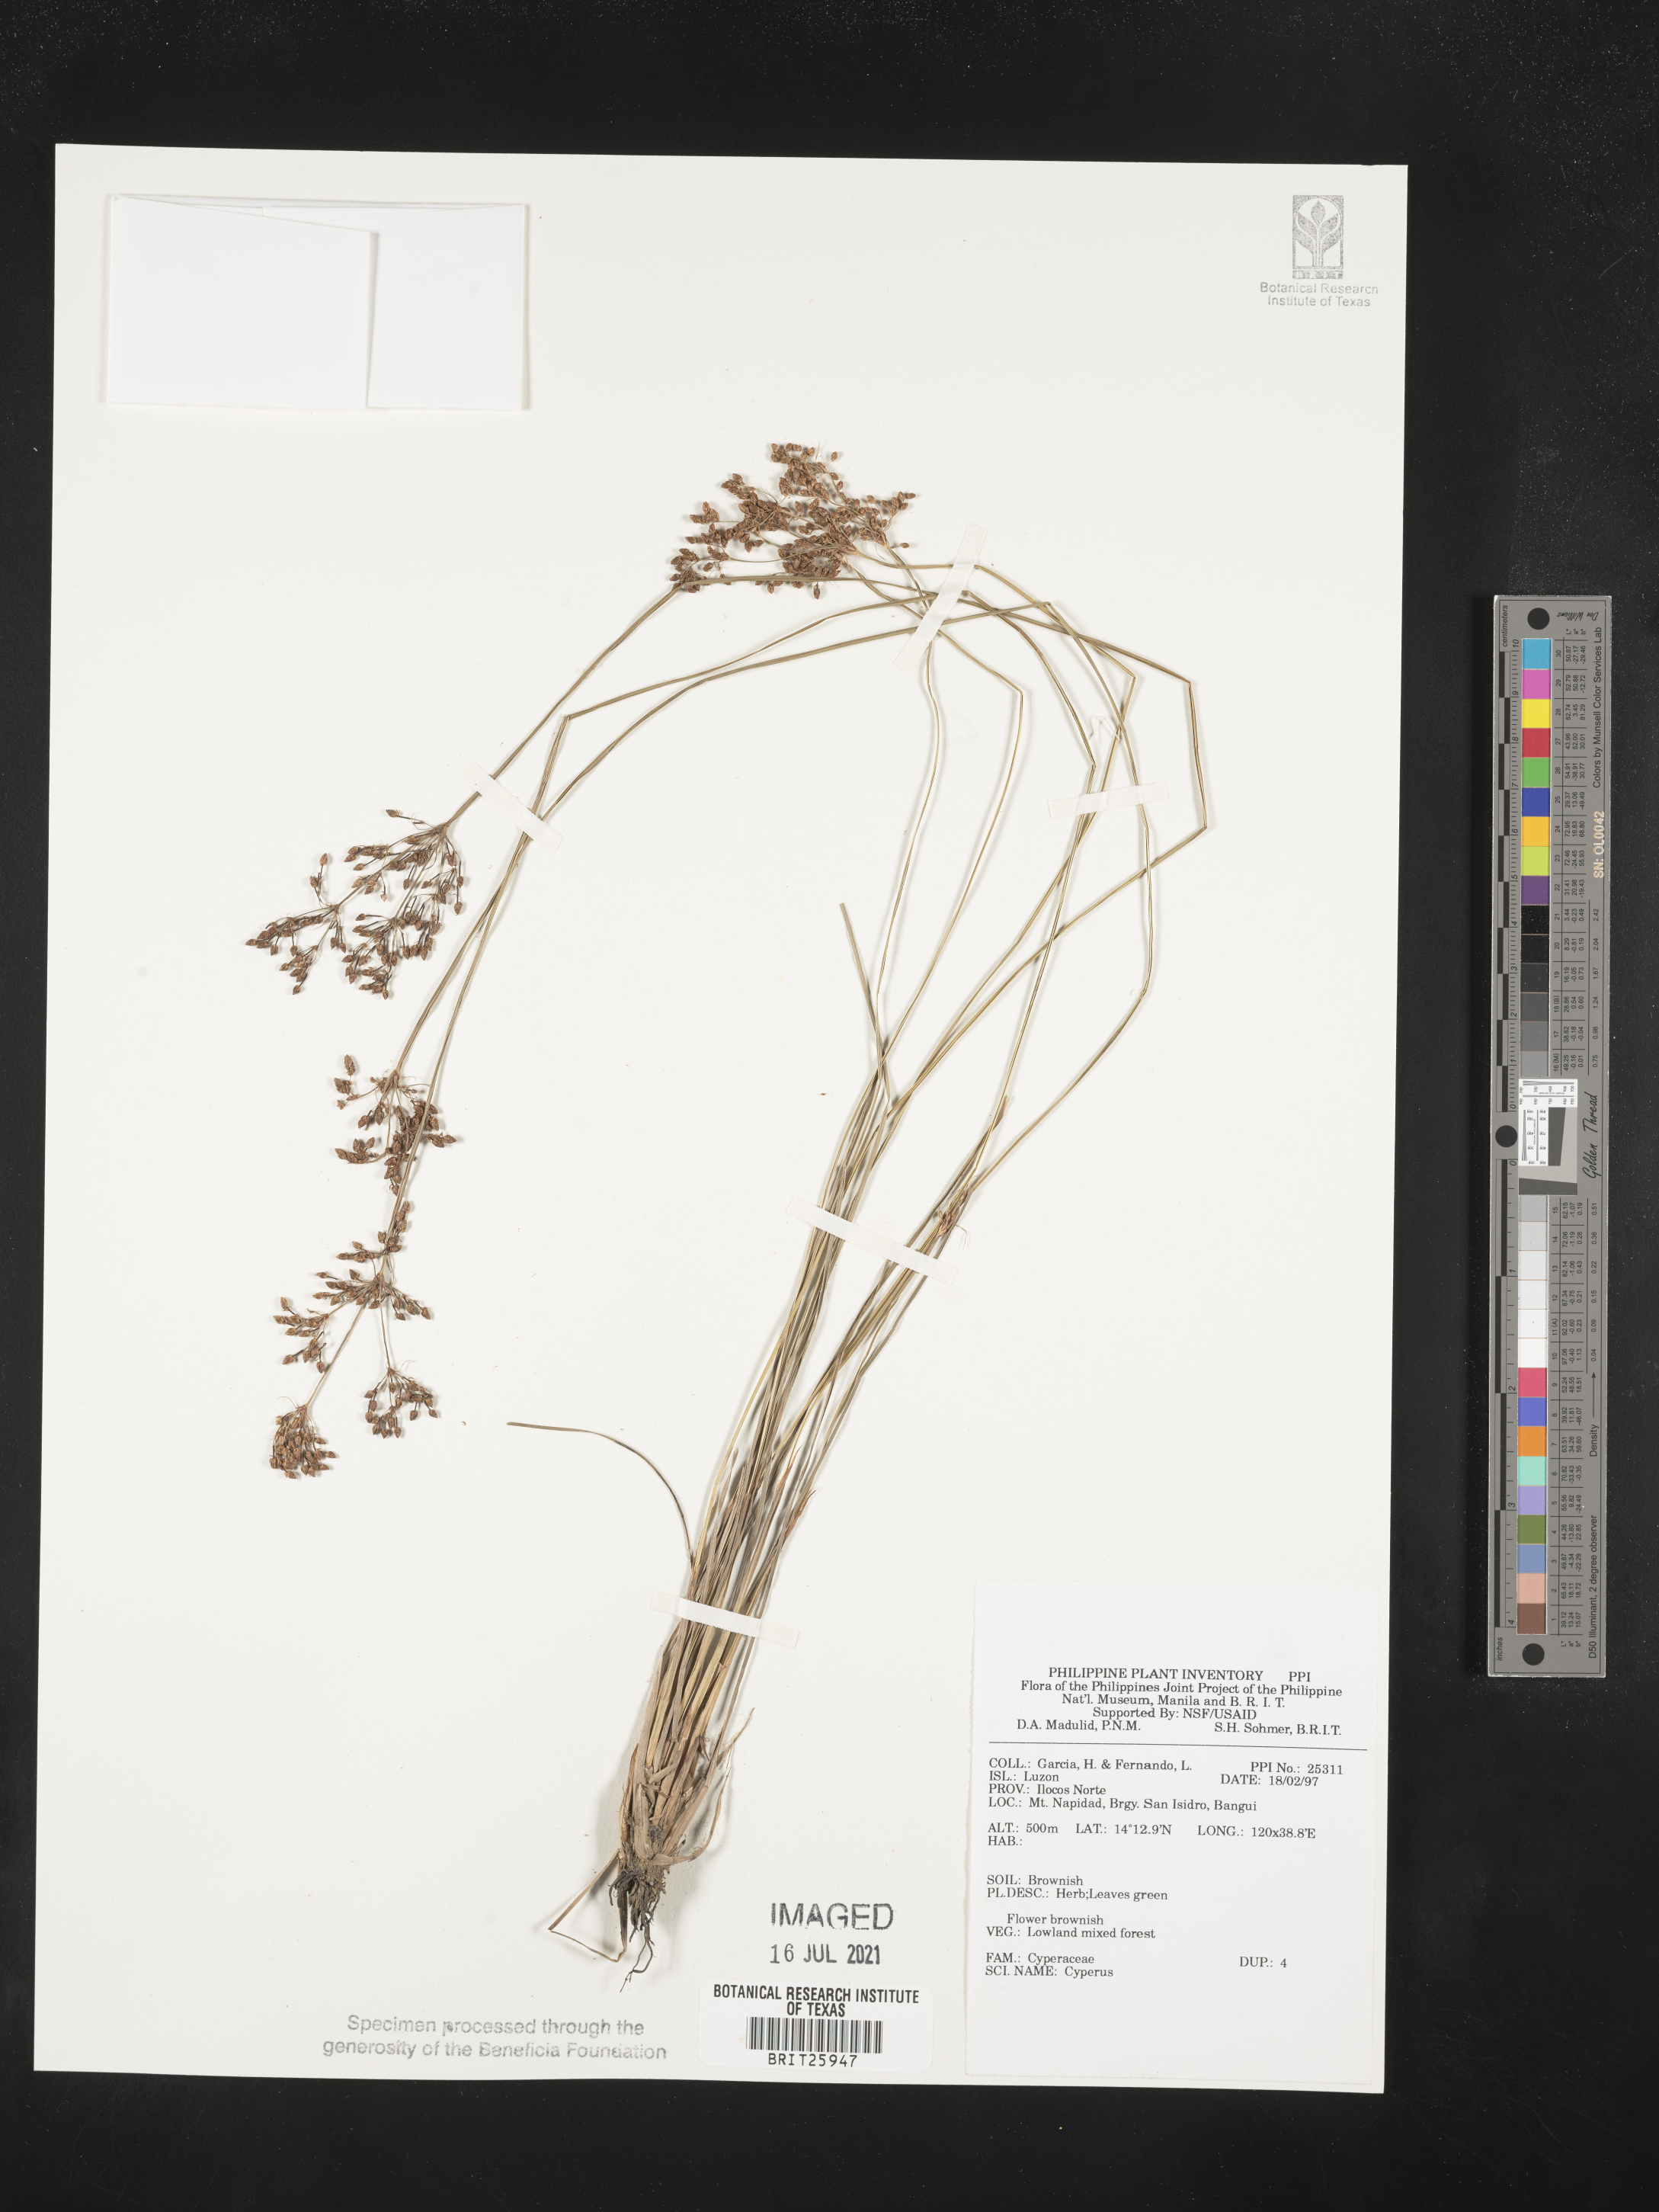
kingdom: Plantae
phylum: Tracheophyta
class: Liliopsida
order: Poales
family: Cyperaceae
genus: Cyperus
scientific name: Cyperus
